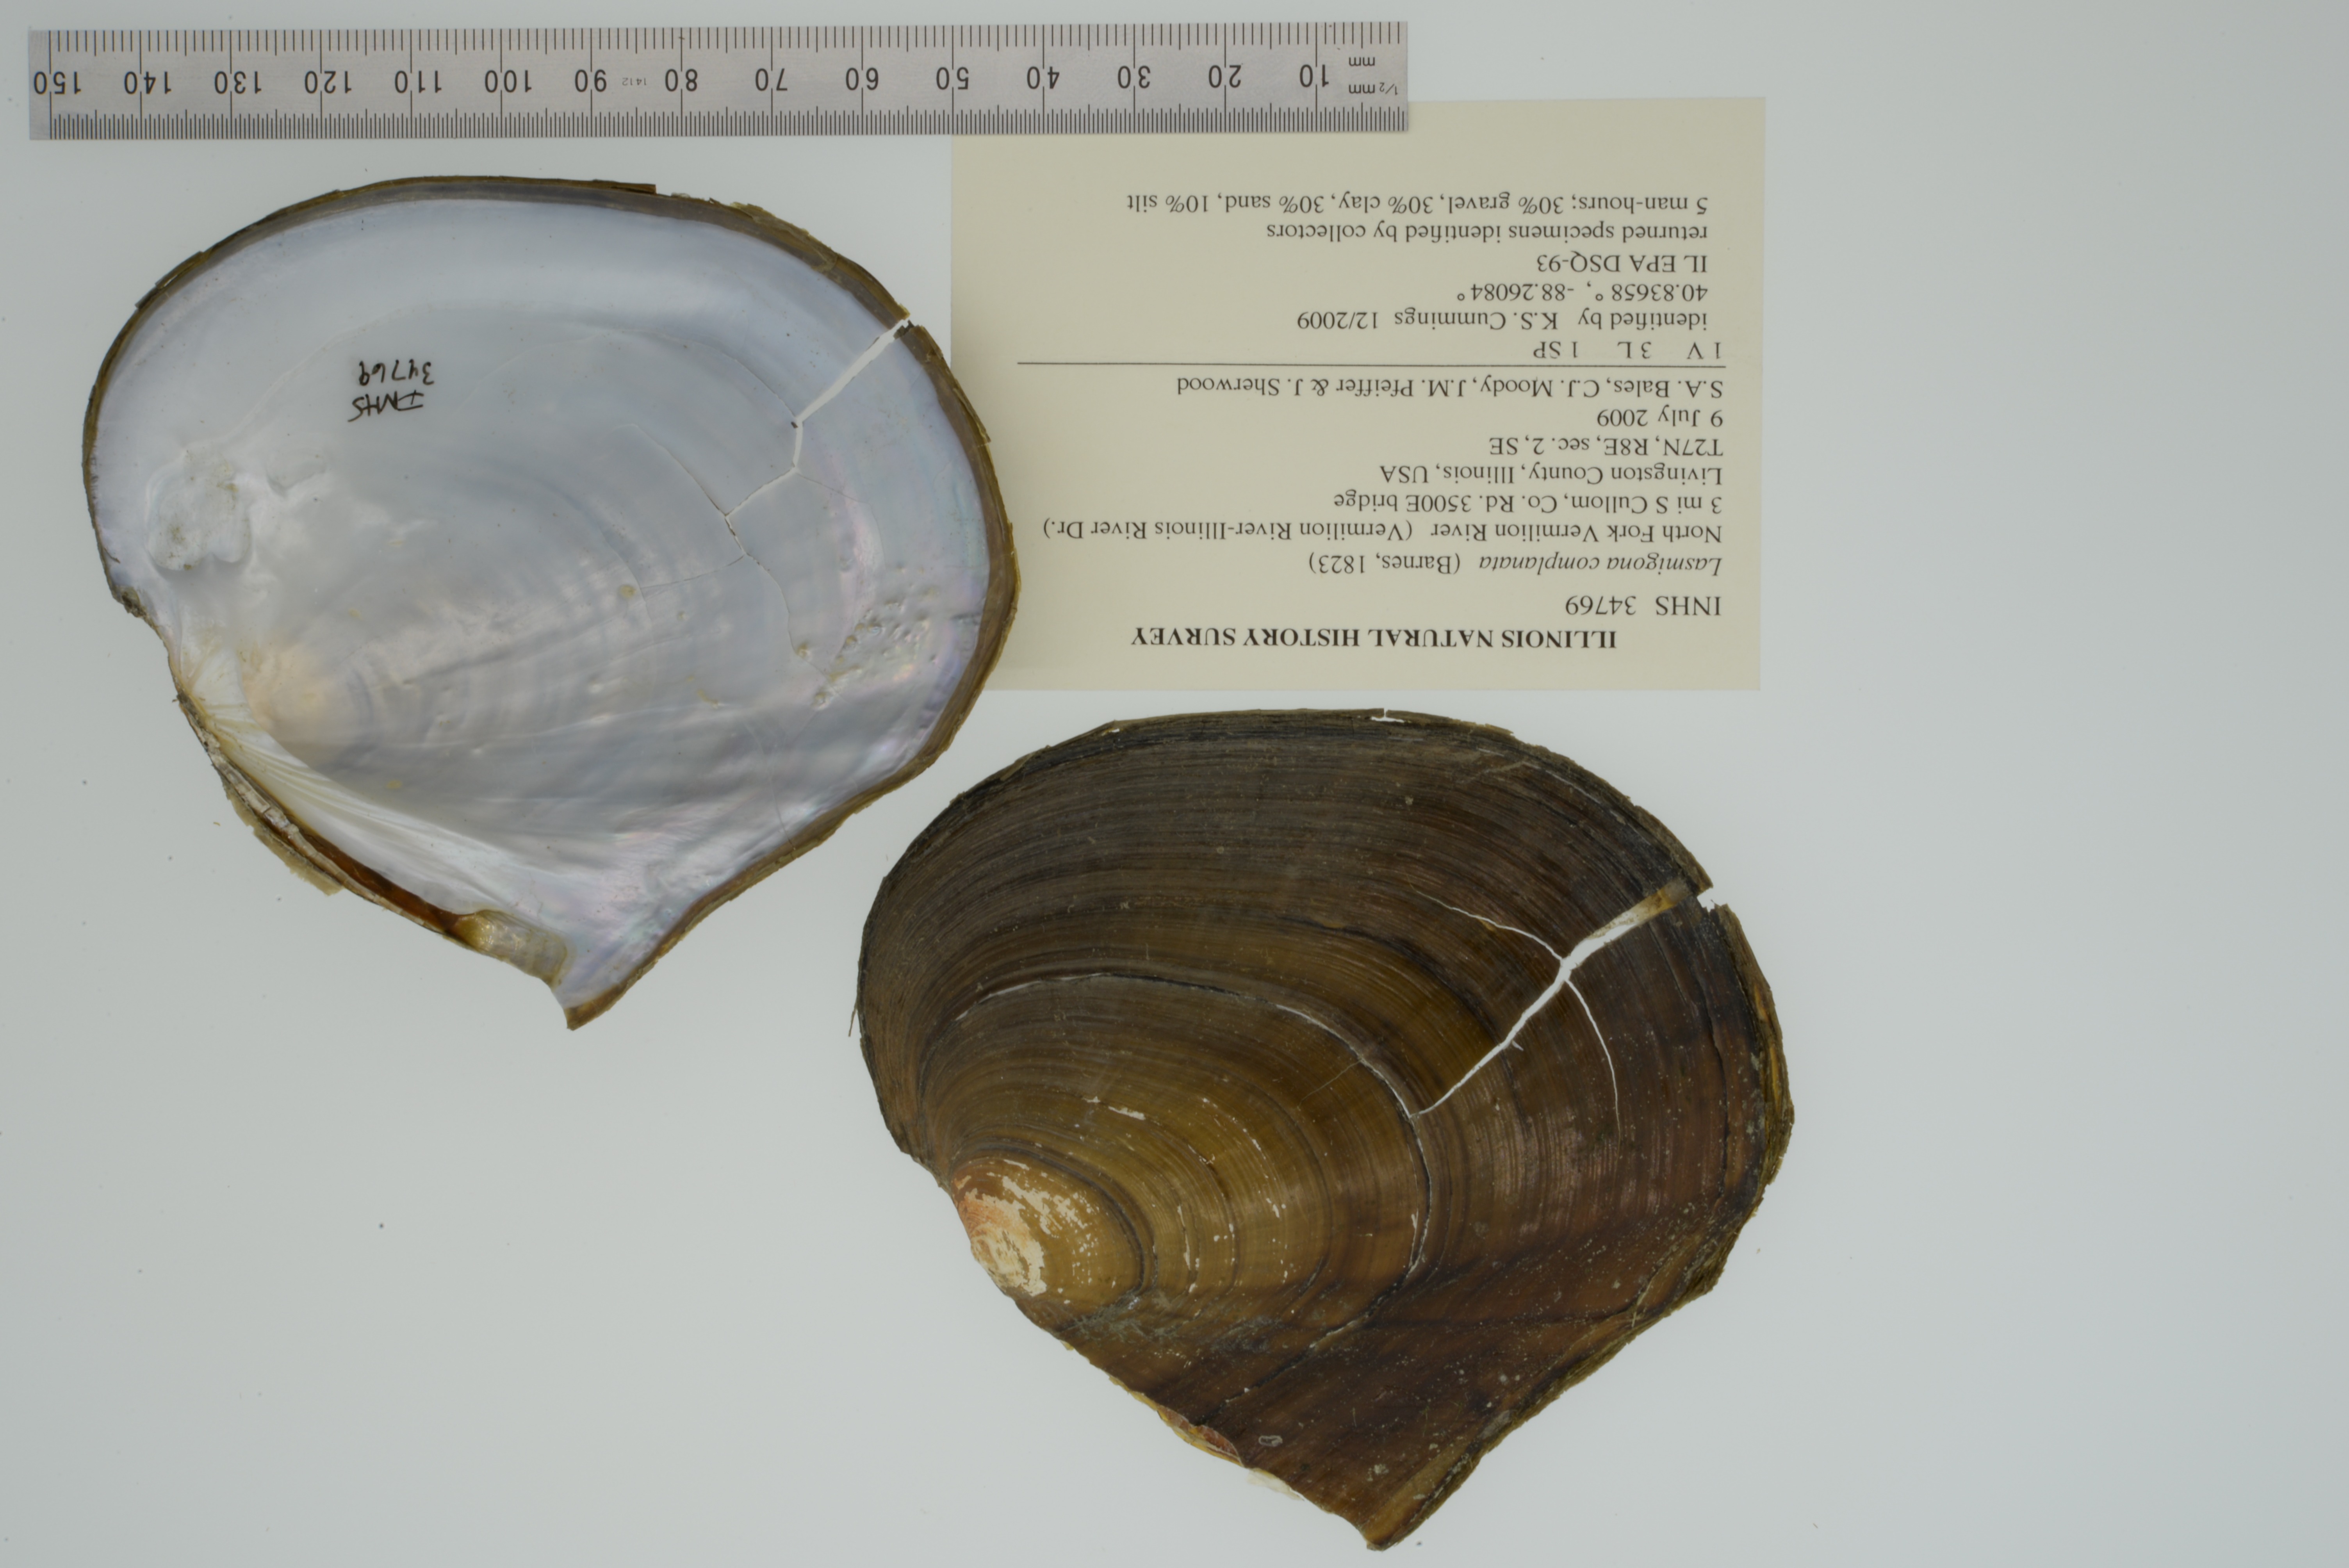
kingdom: Animalia
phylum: Mollusca
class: Bivalvia
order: Unionida
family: Unionidae
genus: Lasmigona
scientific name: Lasmigona complanata
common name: White heelsplitter
